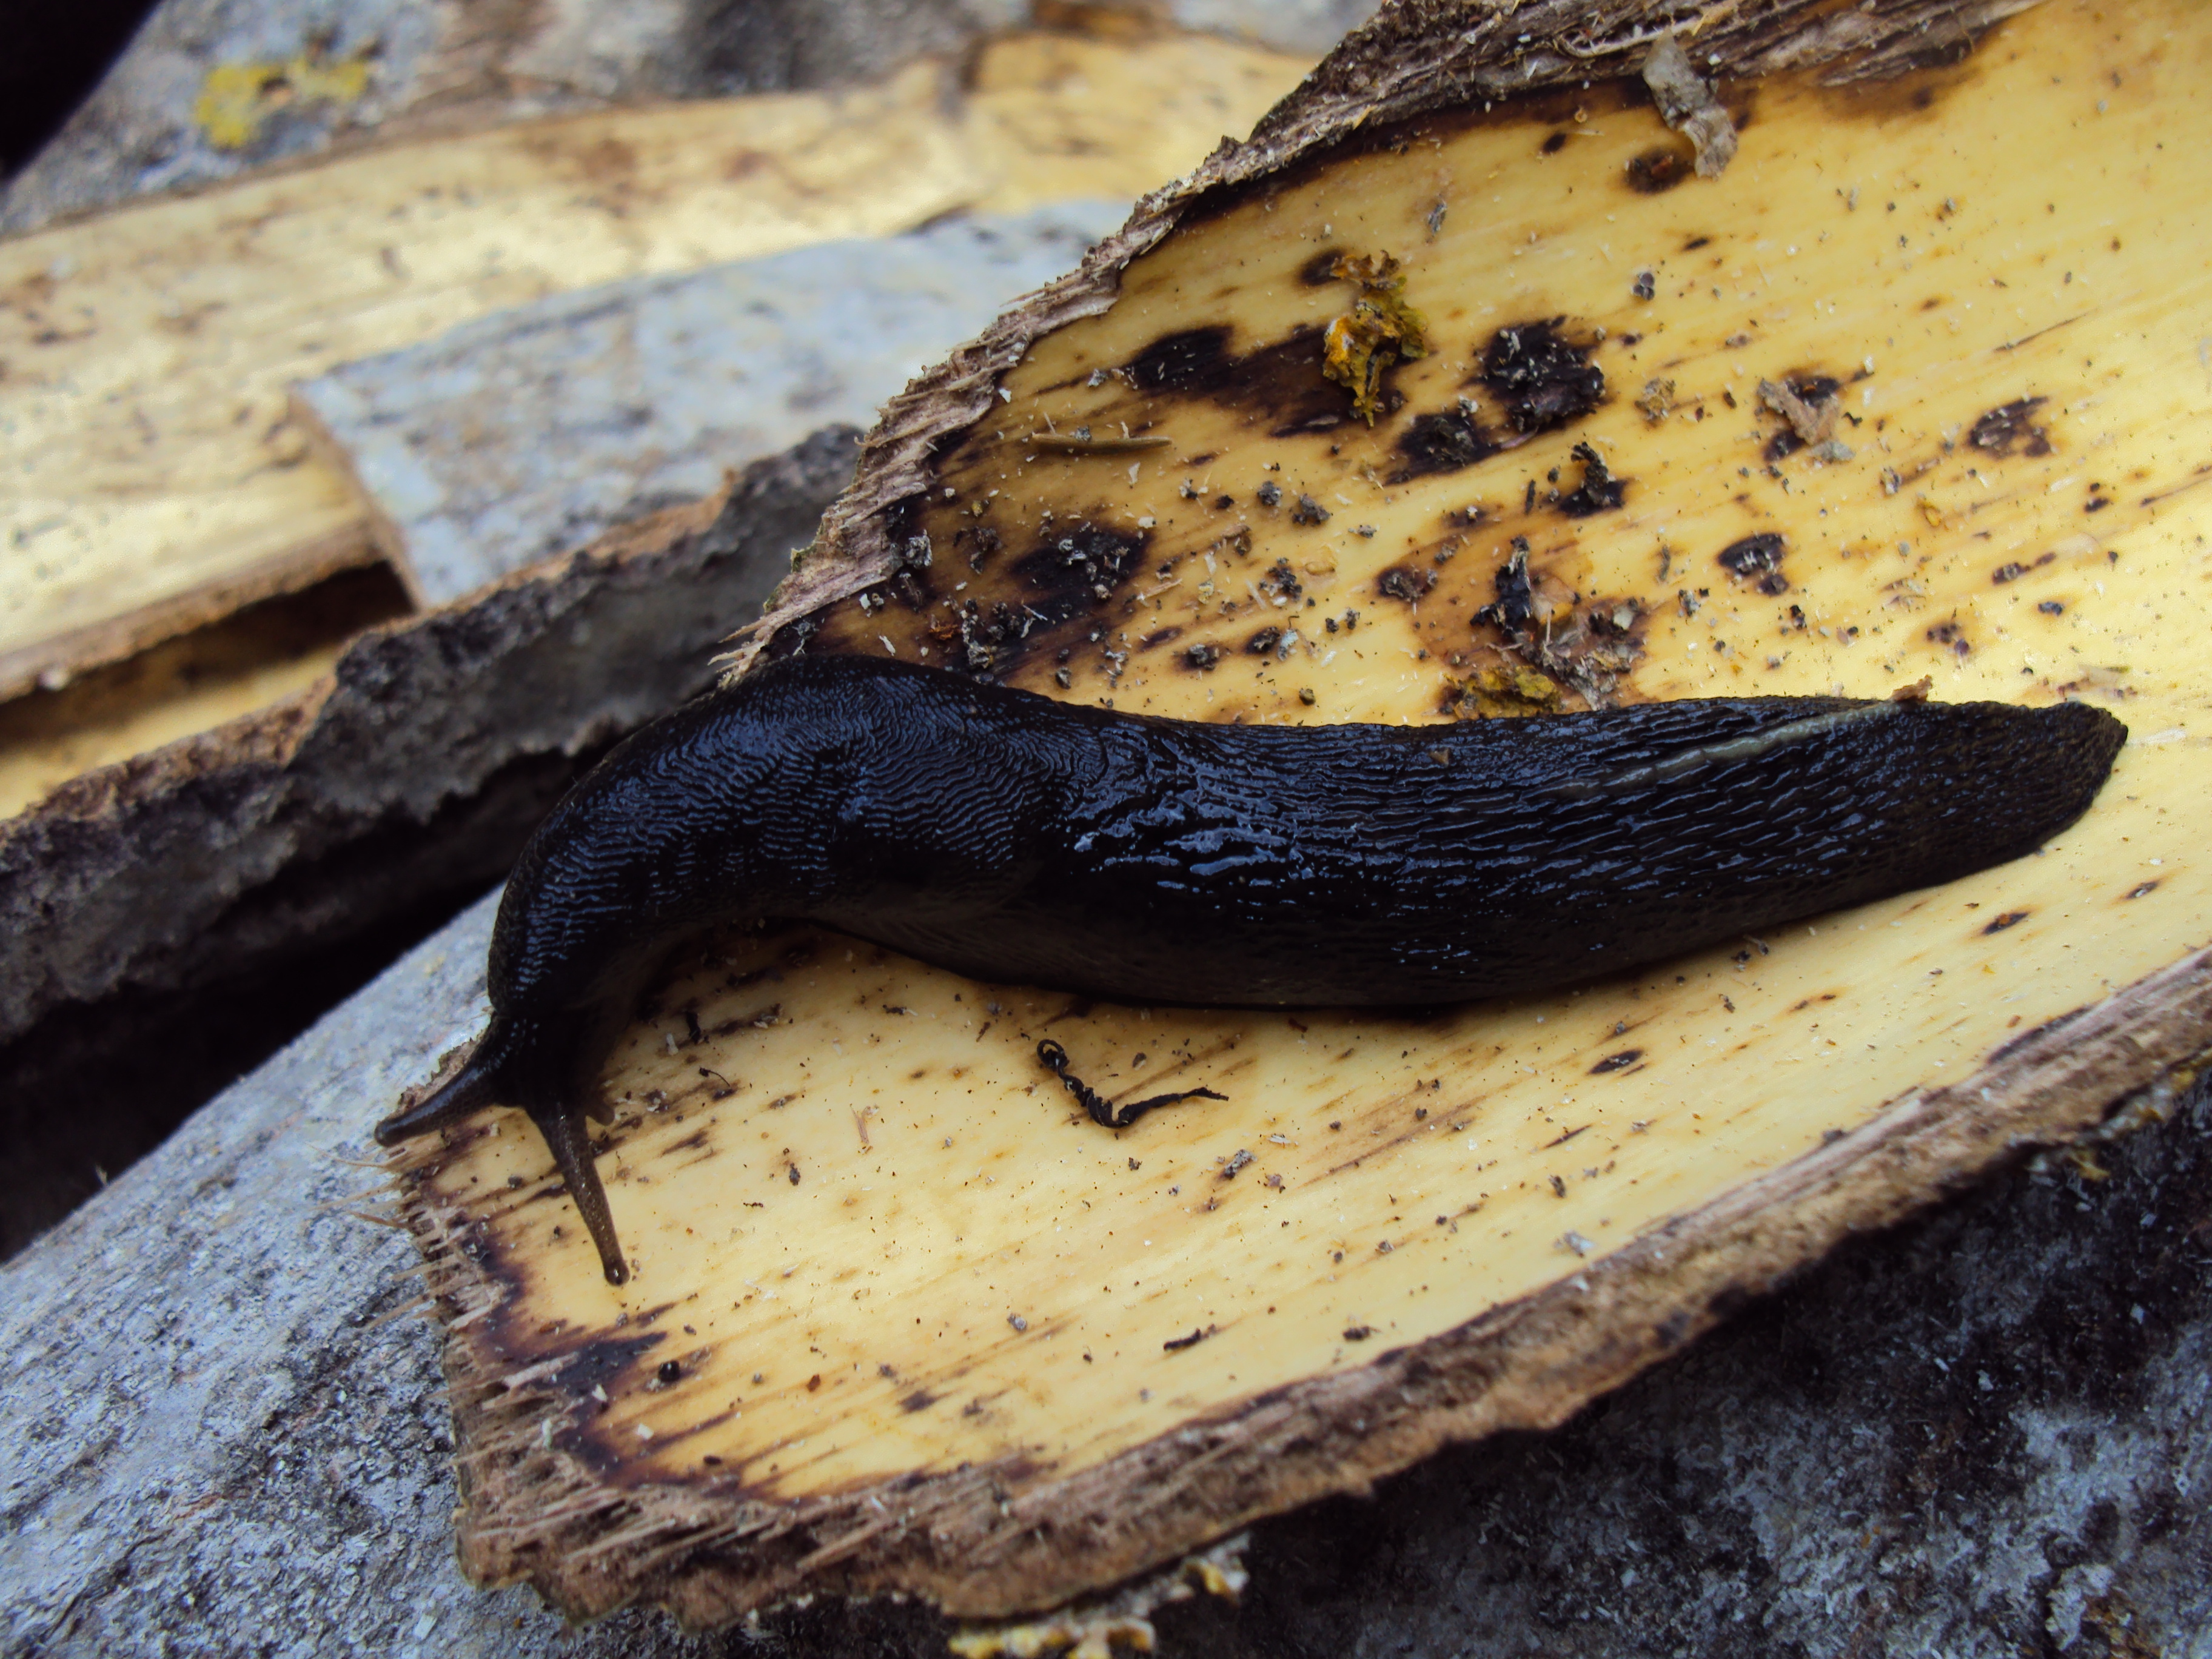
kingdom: Animalia
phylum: Mollusca
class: Gastropoda
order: Stylommatophora
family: Limacidae
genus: Limax
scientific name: Limax cinereoniger
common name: Ash-black slug
